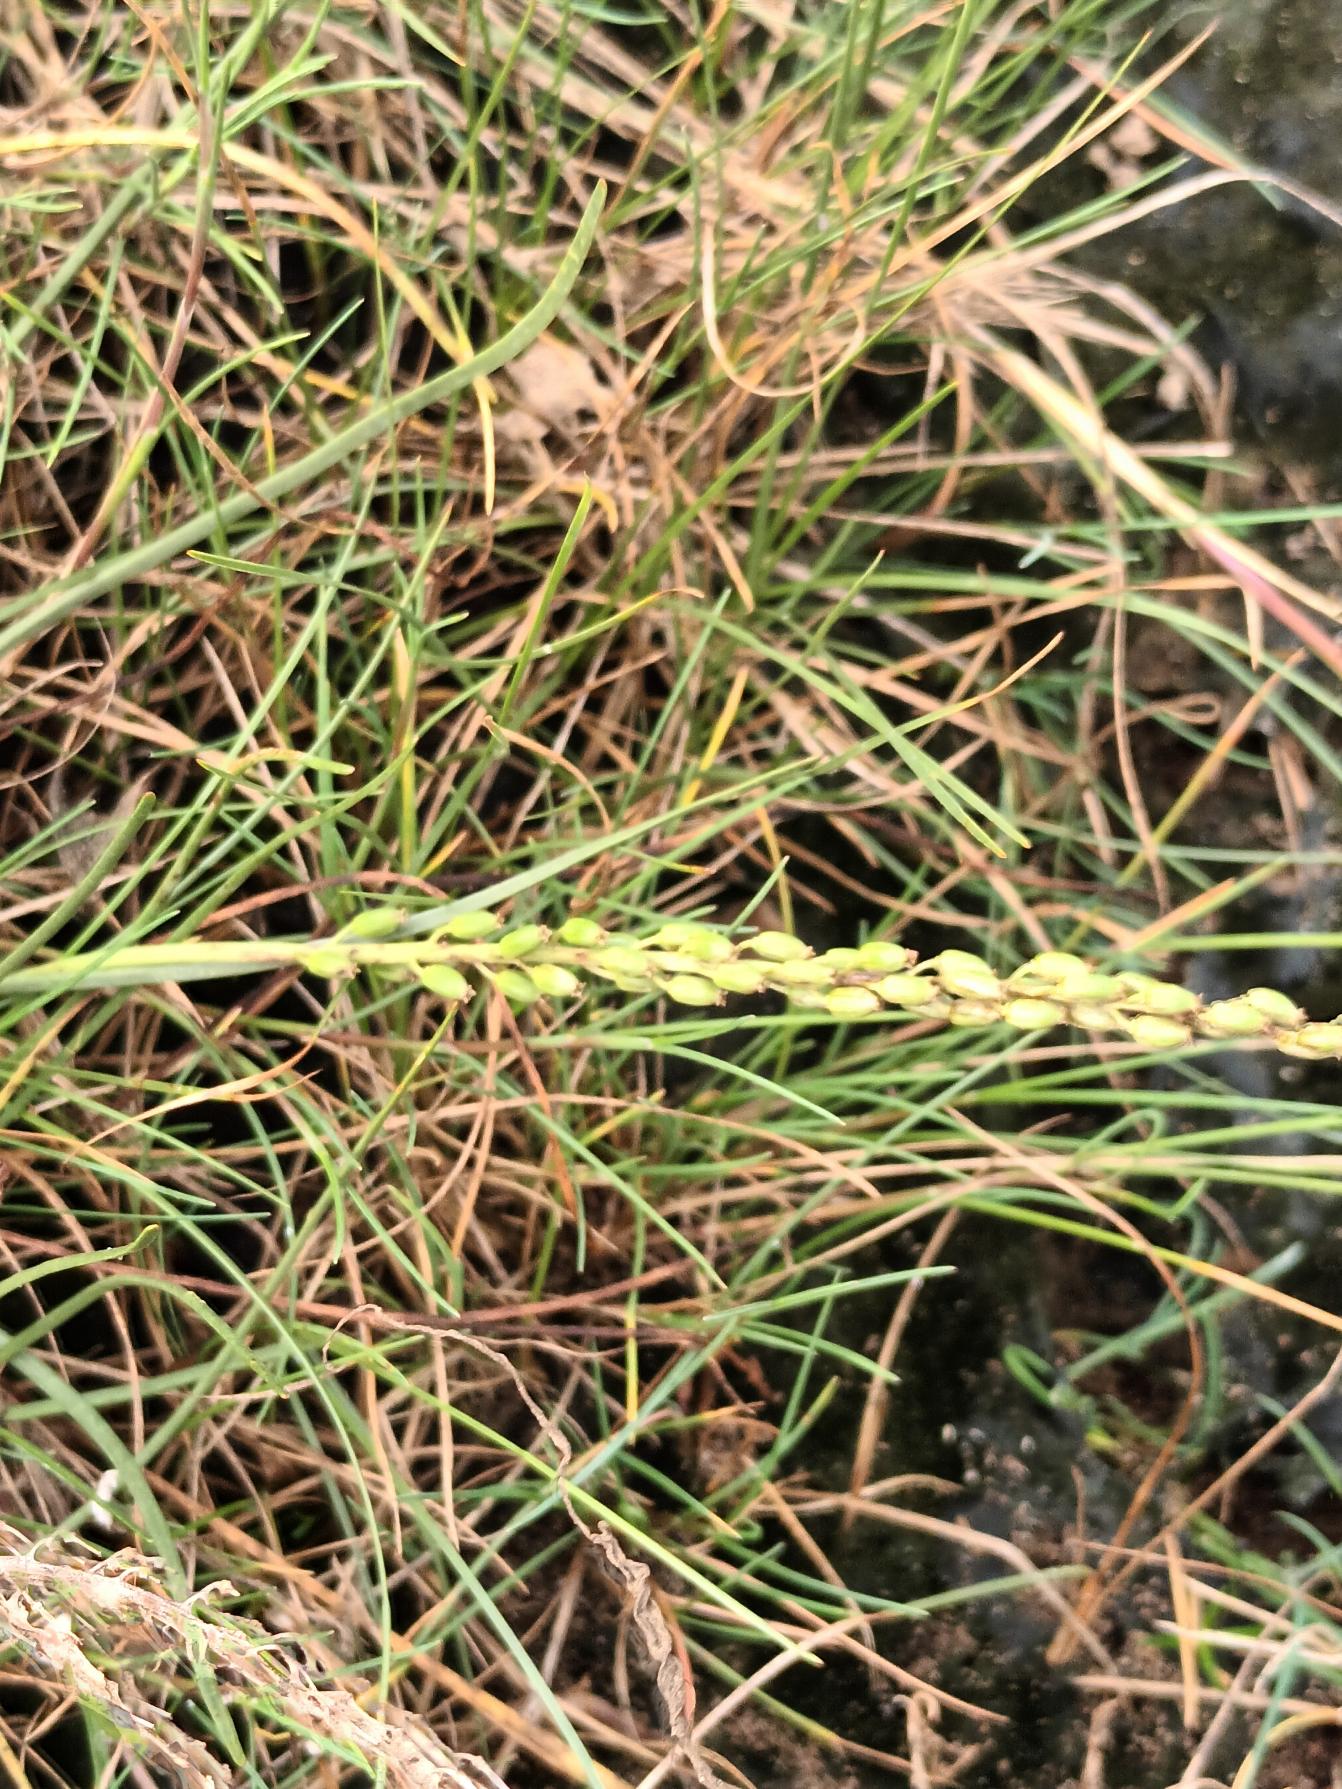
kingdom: Plantae
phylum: Tracheophyta
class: Liliopsida
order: Alismatales
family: Juncaginaceae
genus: Triglochin
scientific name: Triglochin maritima
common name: Strand-trehage
